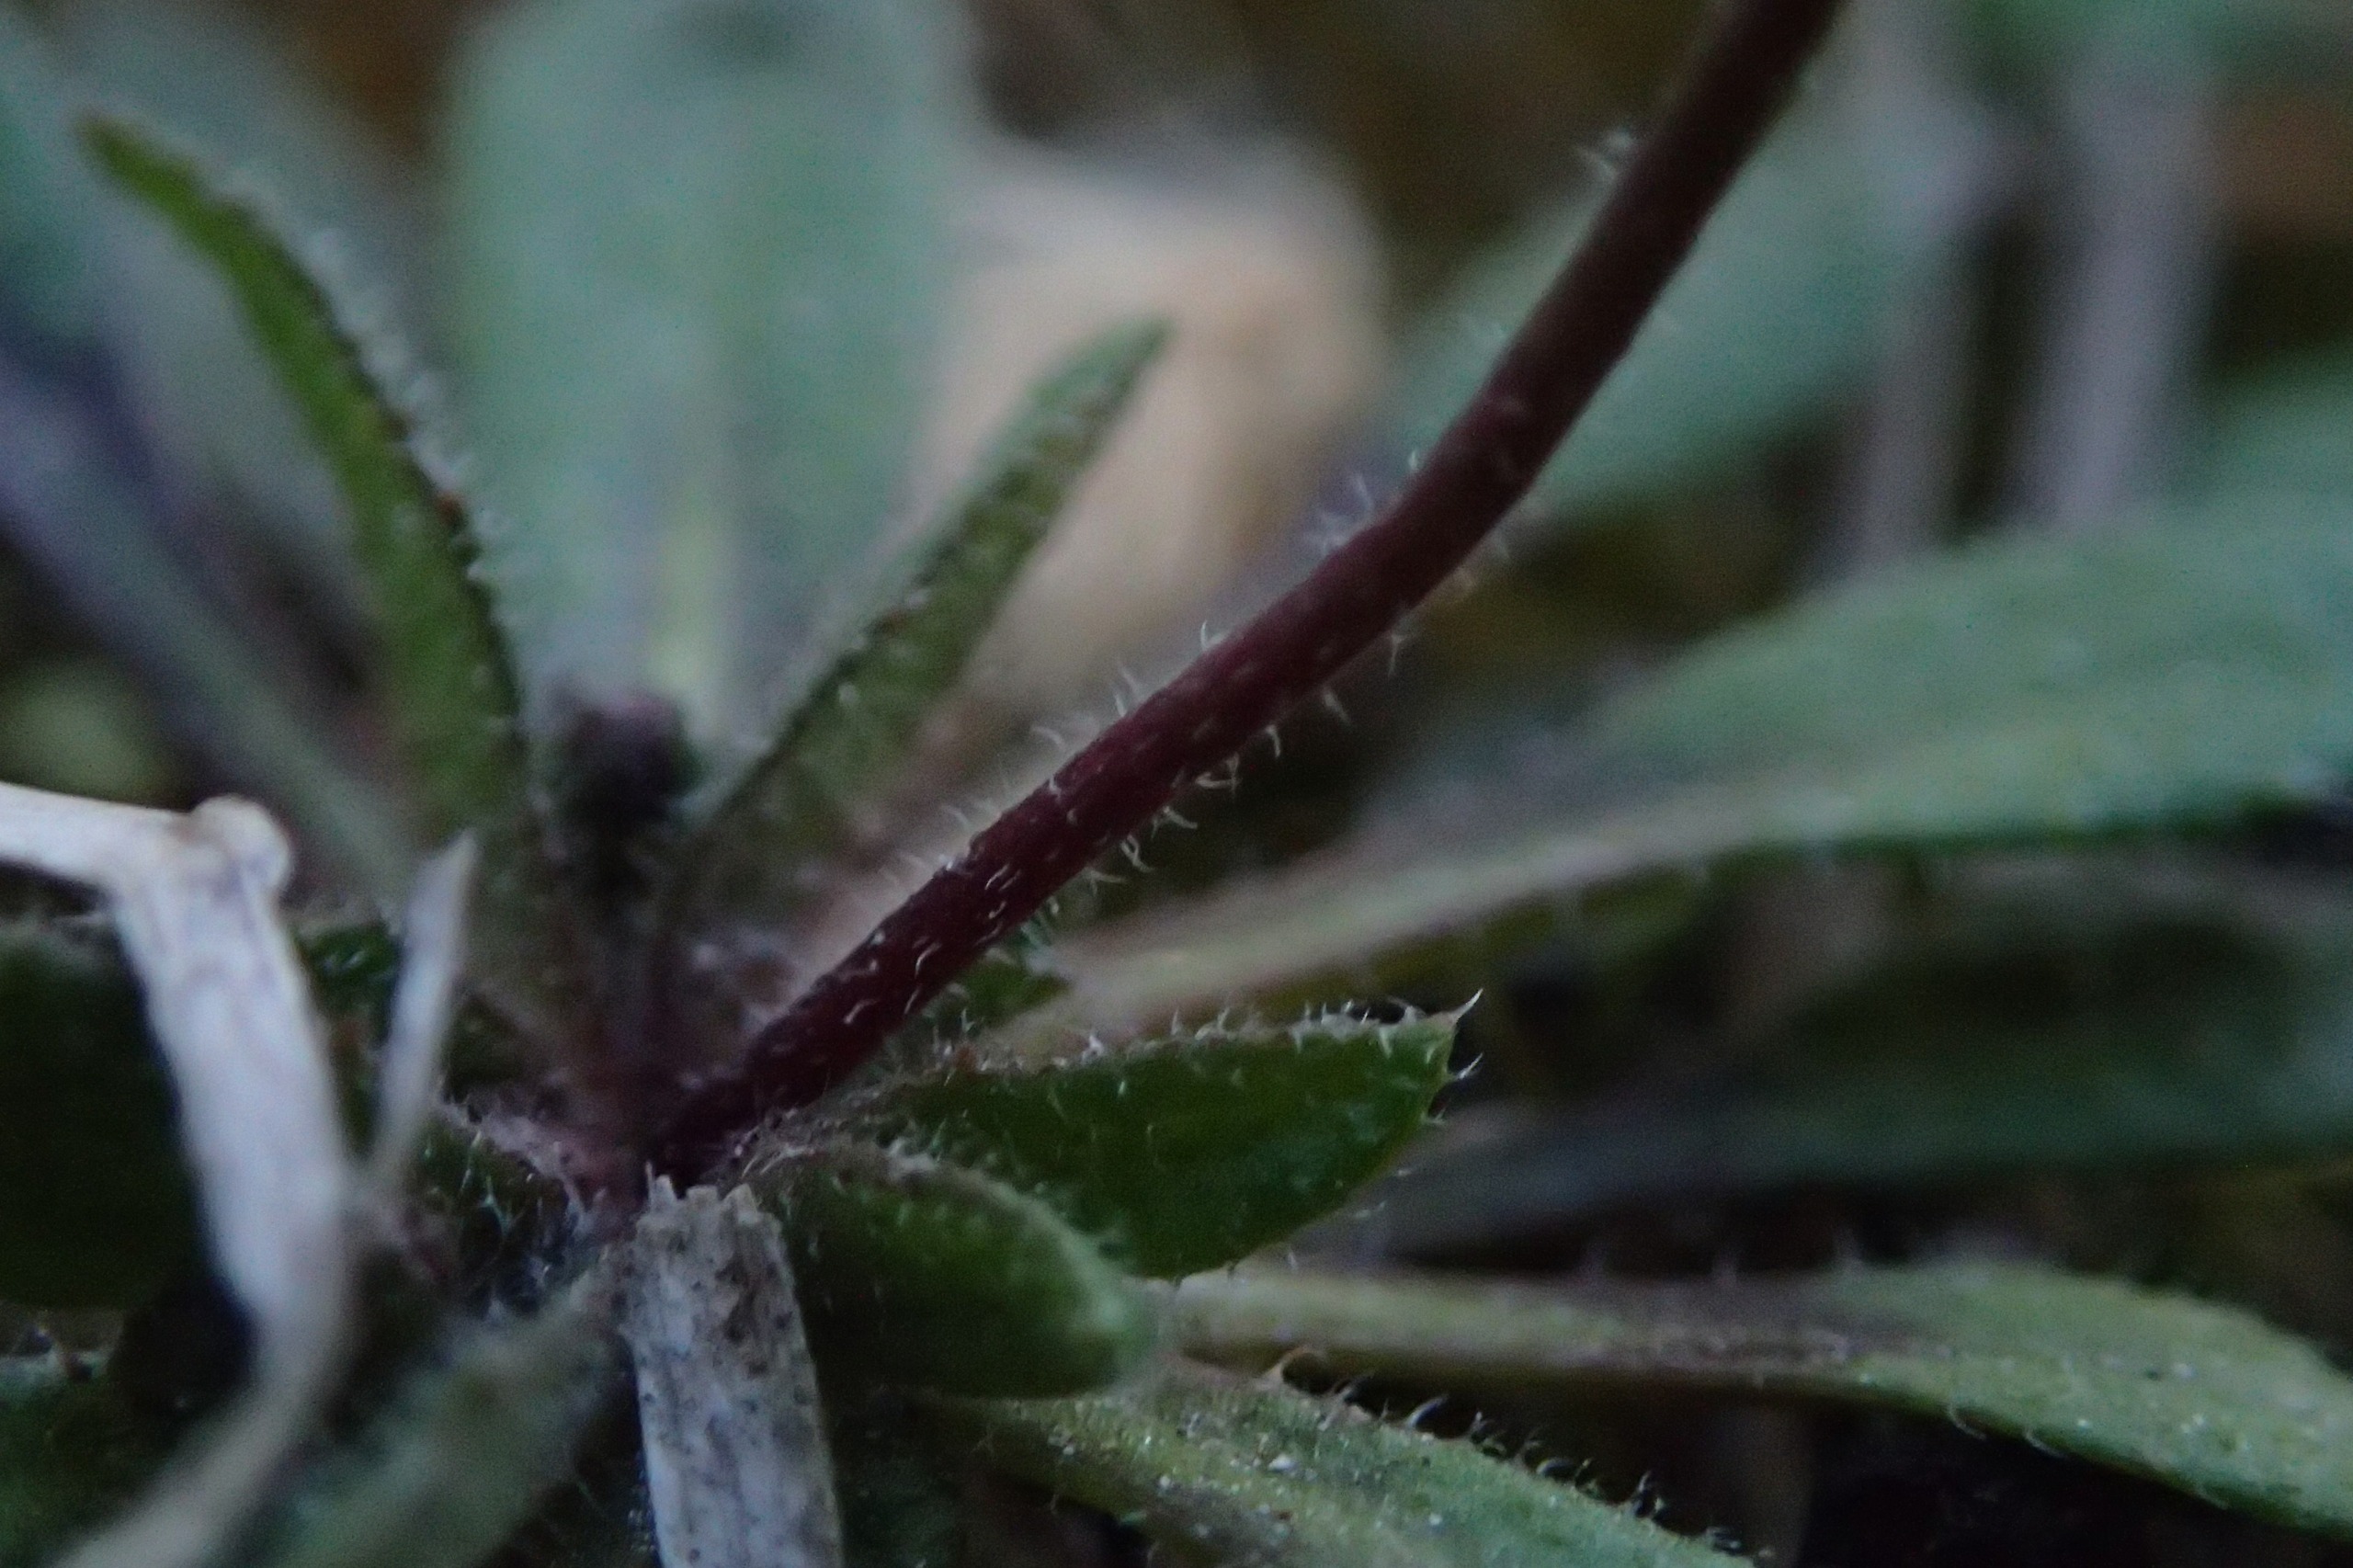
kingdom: Plantae
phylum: Tracheophyta
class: Magnoliopsida
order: Brassicales
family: Brassicaceae
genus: Draba
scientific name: Draba verna
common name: Vår-gæslingeblomst
